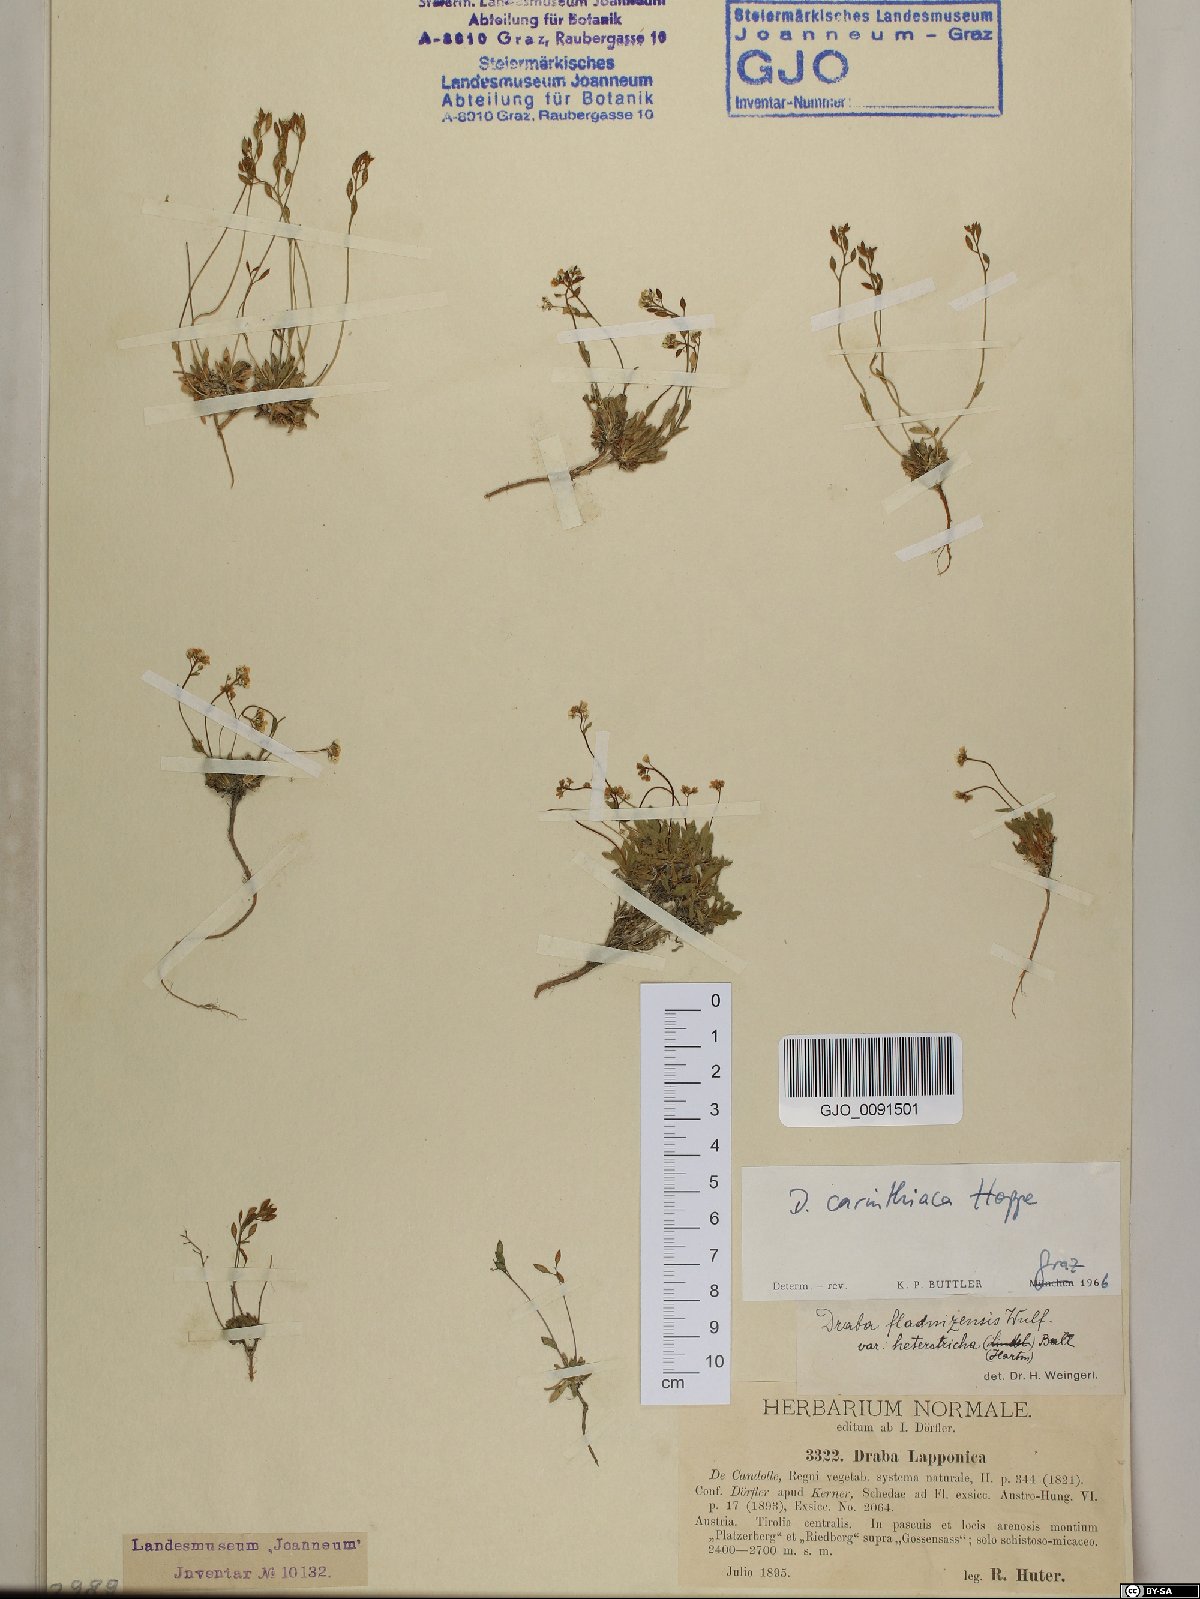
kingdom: Plantae
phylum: Tracheophyta
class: Magnoliopsida
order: Brassicales
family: Brassicaceae
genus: Draba
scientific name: Draba siliquosa
